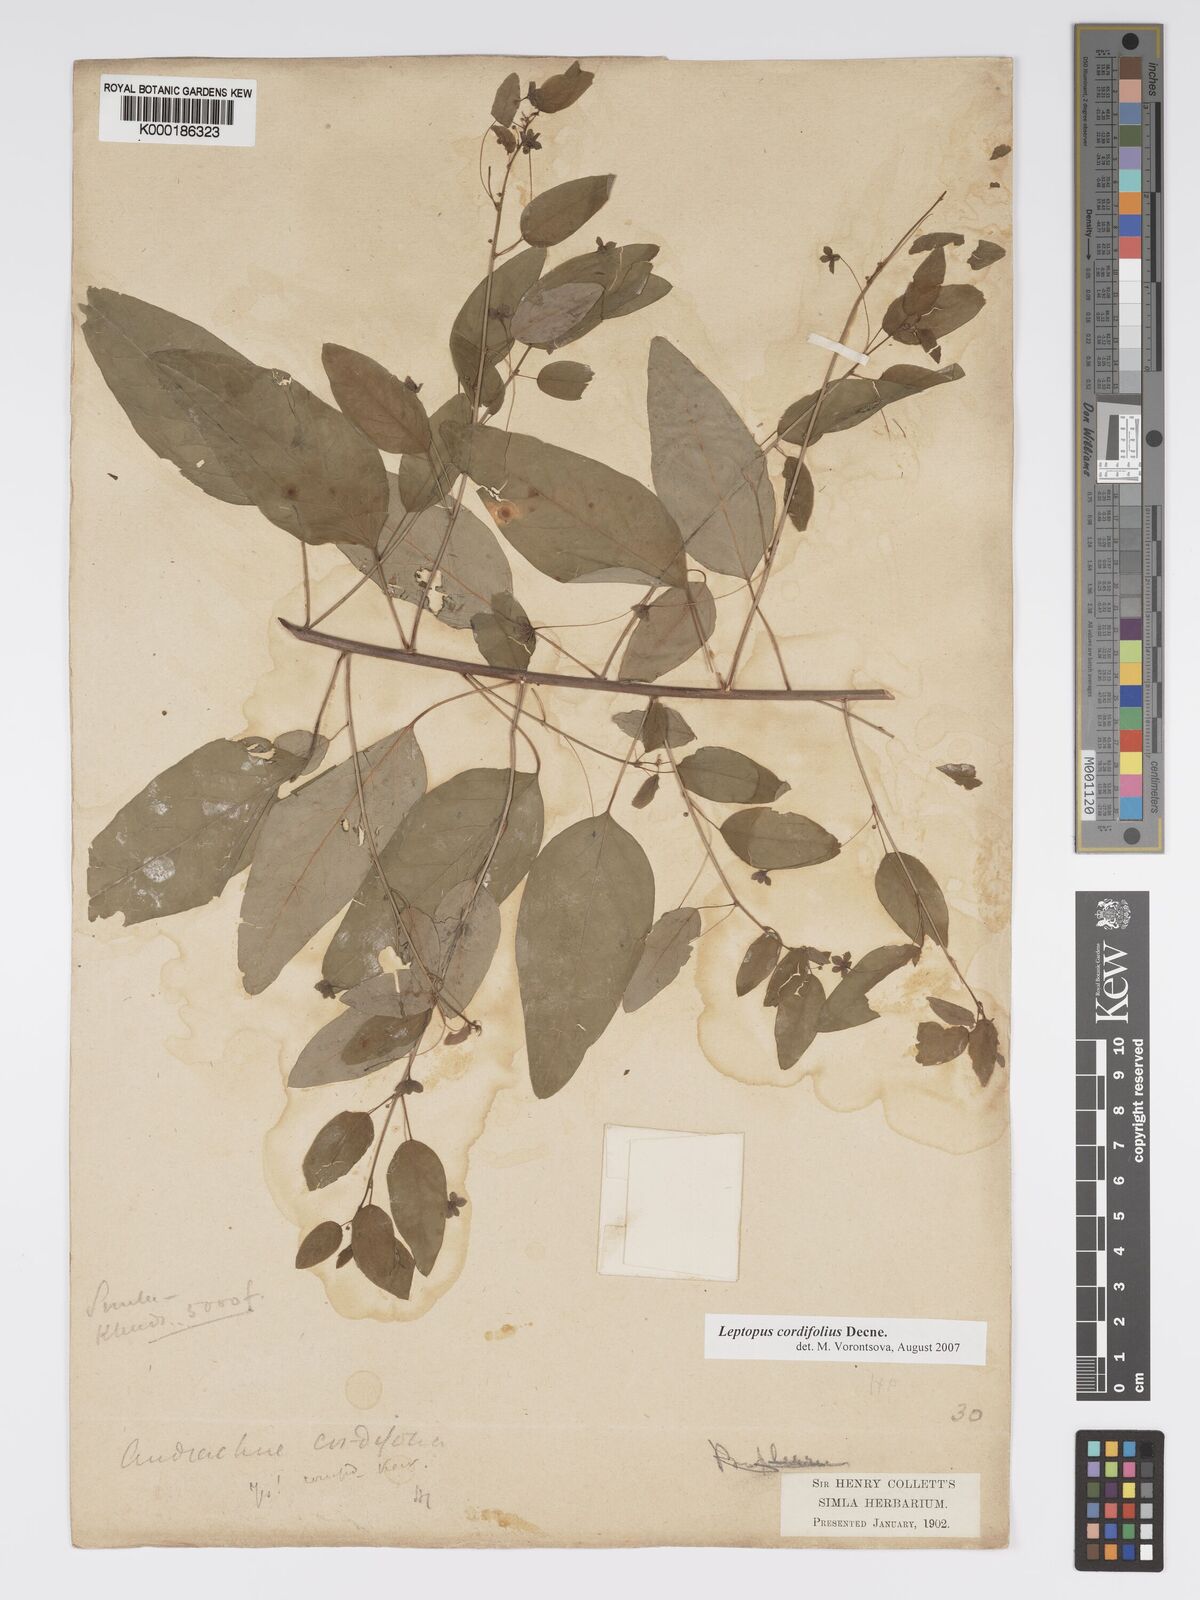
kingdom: Plantae
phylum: Tracheophyta
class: Magnoliopsida
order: Malpighiales
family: Phyllanthaceae
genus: Leptopus
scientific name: Leptopus cordifolius
